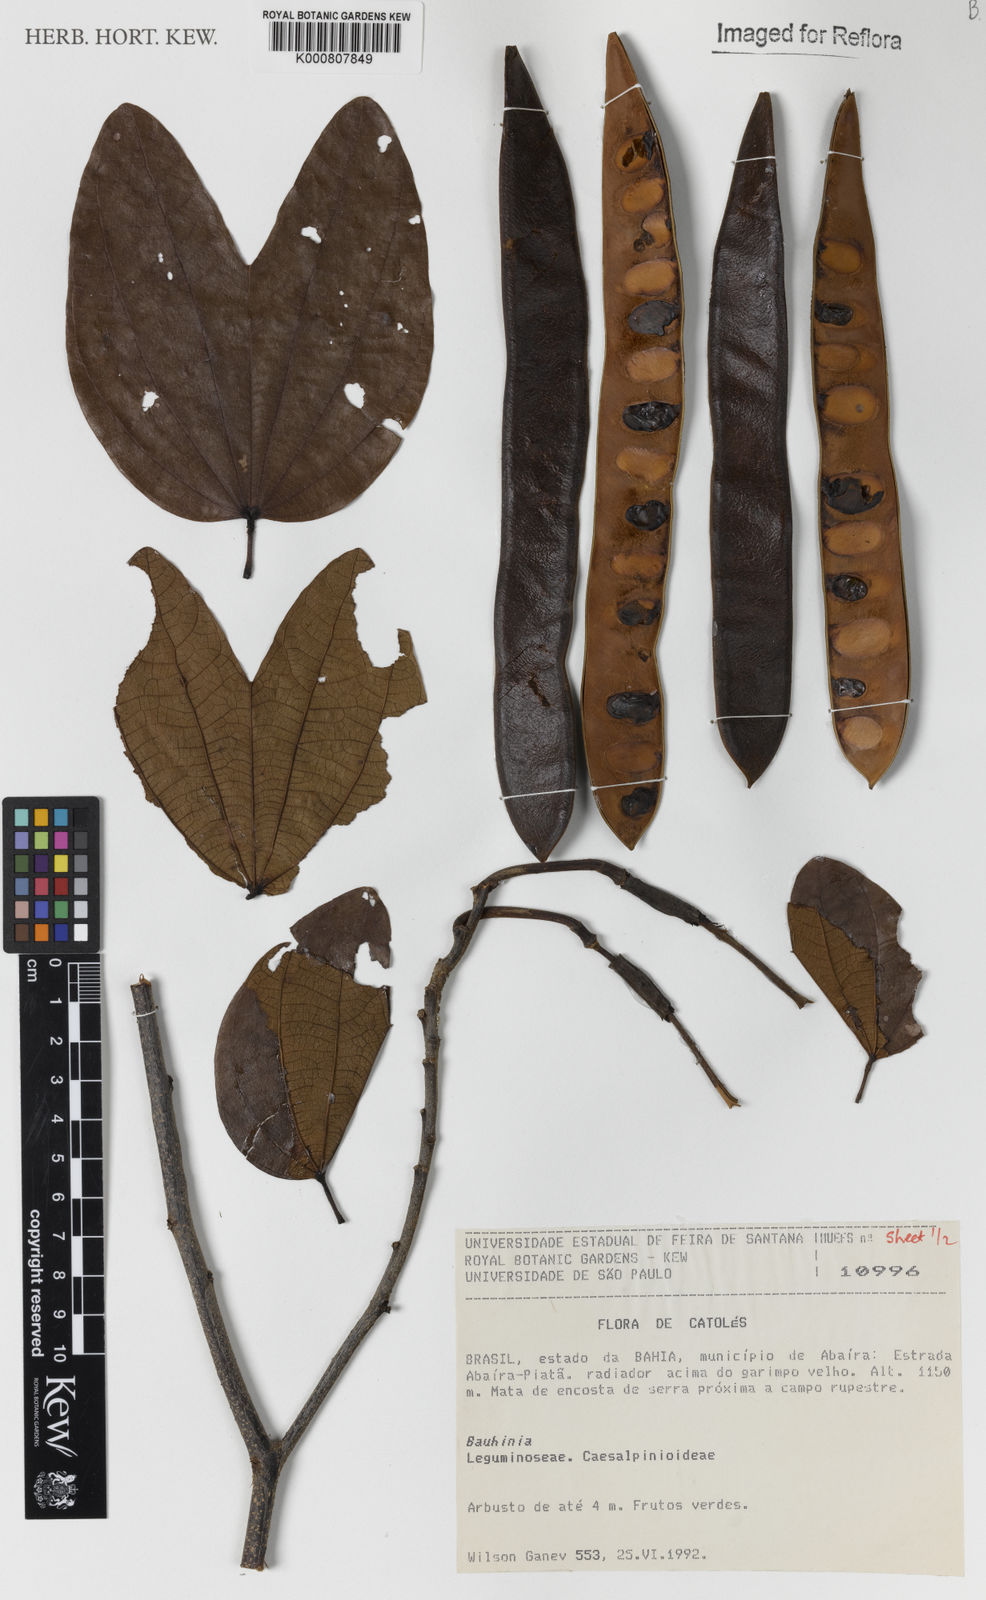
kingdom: Plantae
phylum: Tracheophyta
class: Magnoliopsida
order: Fabales
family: Fabaceae
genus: Bauhinia
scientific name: Bauhinia
